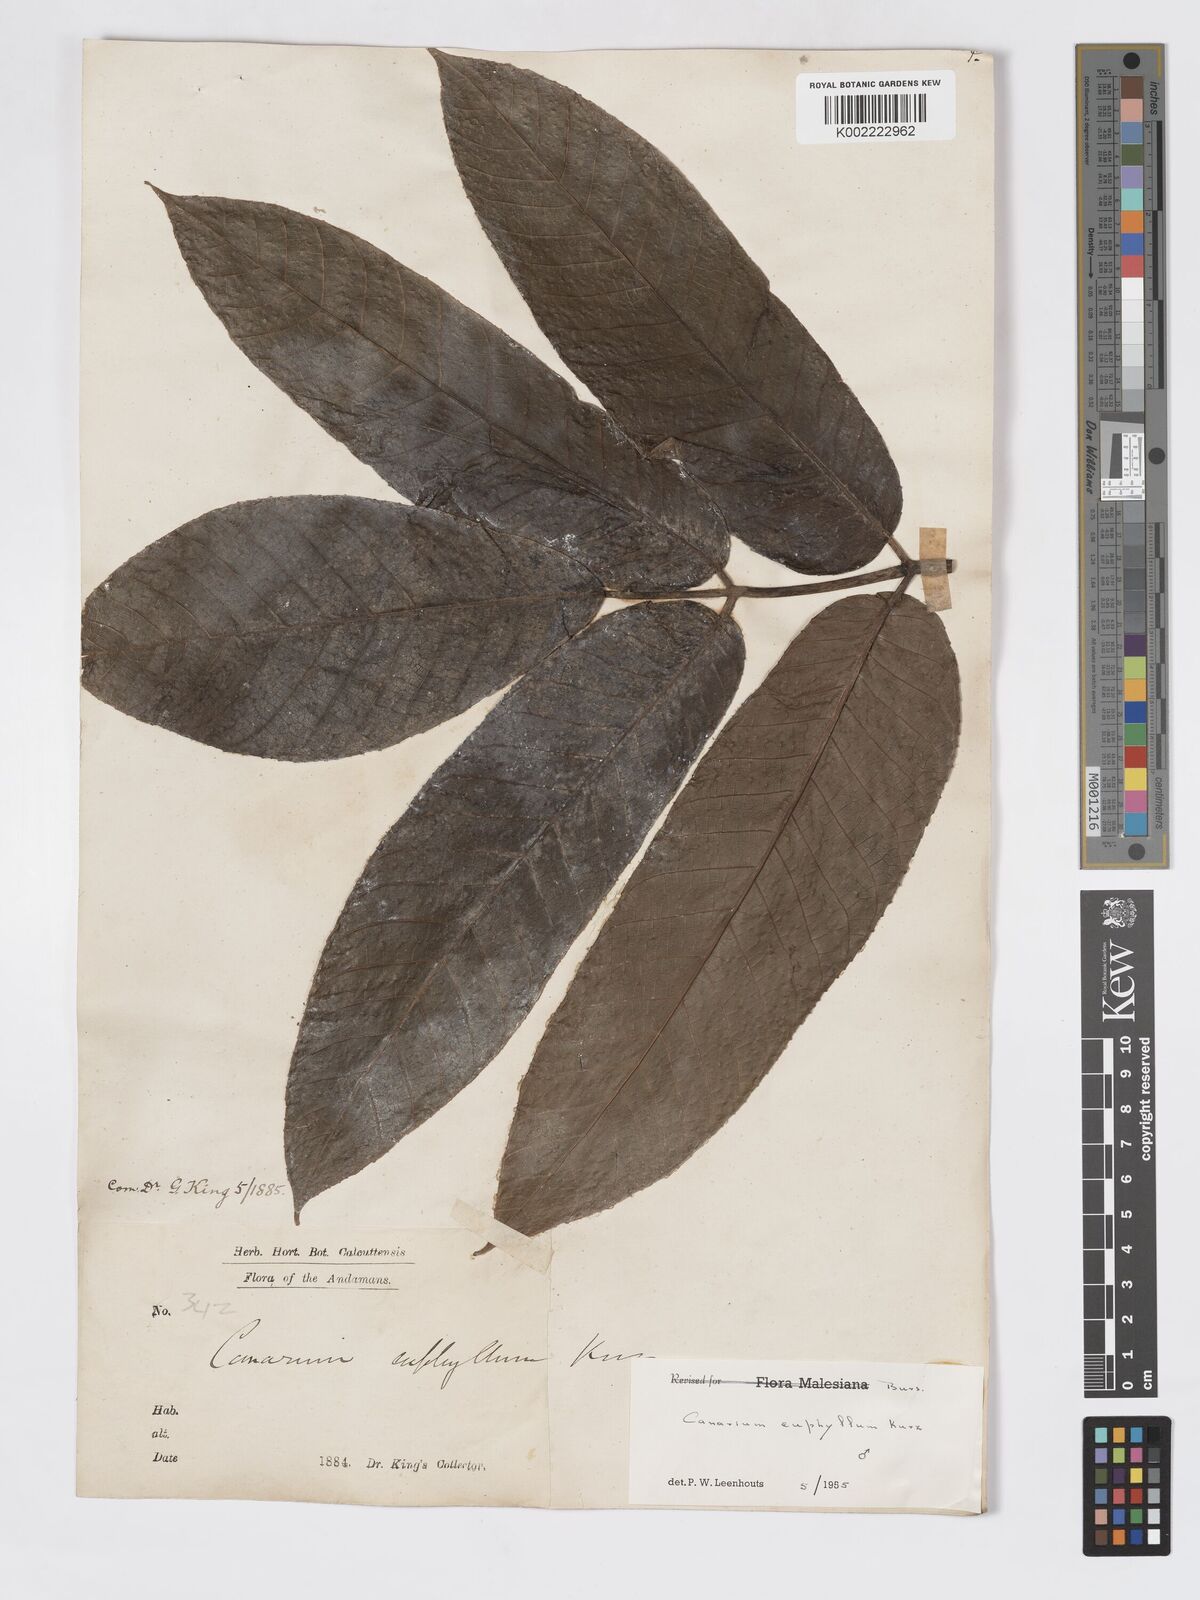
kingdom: Plantae
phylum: Tracheophyta
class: Magnoliopsida
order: Sapindales
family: Burseraceae
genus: Canarium
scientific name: Canarium euphyllum
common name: White dhup
